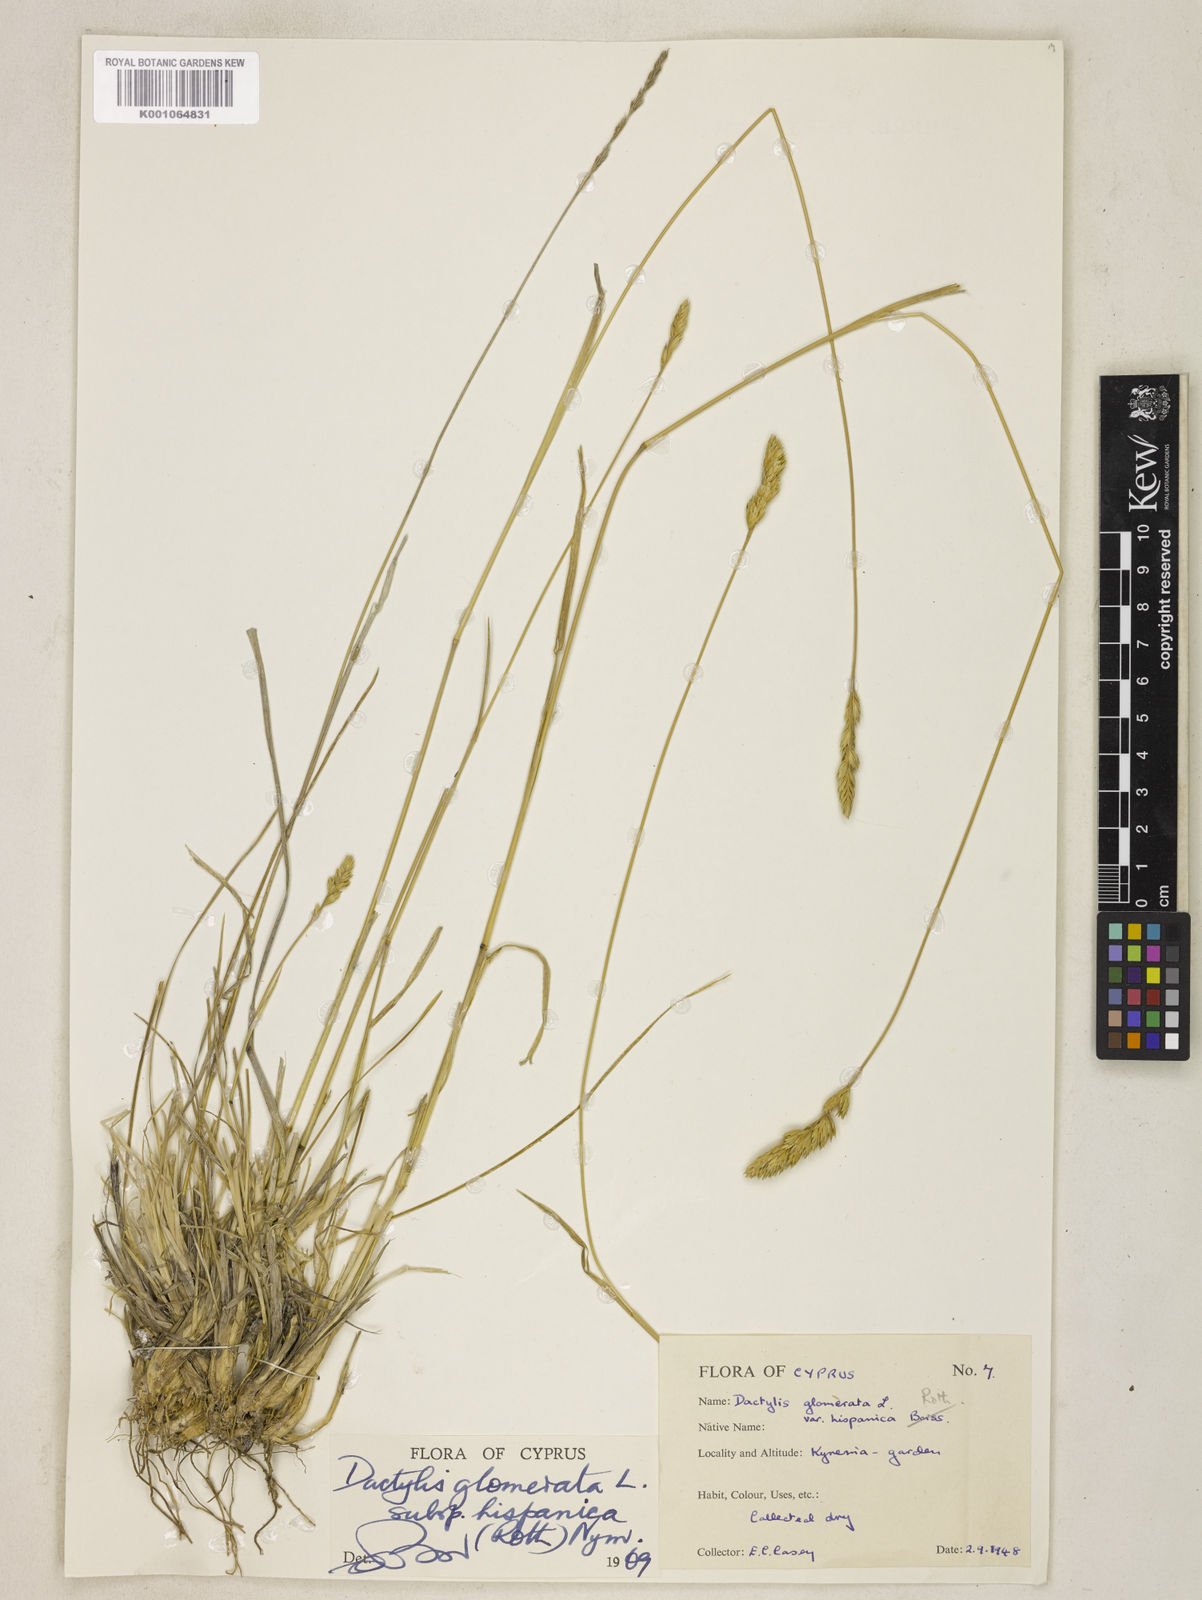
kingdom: Plantae
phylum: Tracheophyta
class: Liliopsida
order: Poales
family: Poaceae
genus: Dactylis
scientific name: Dactylis glomerata
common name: Orchardgrass
